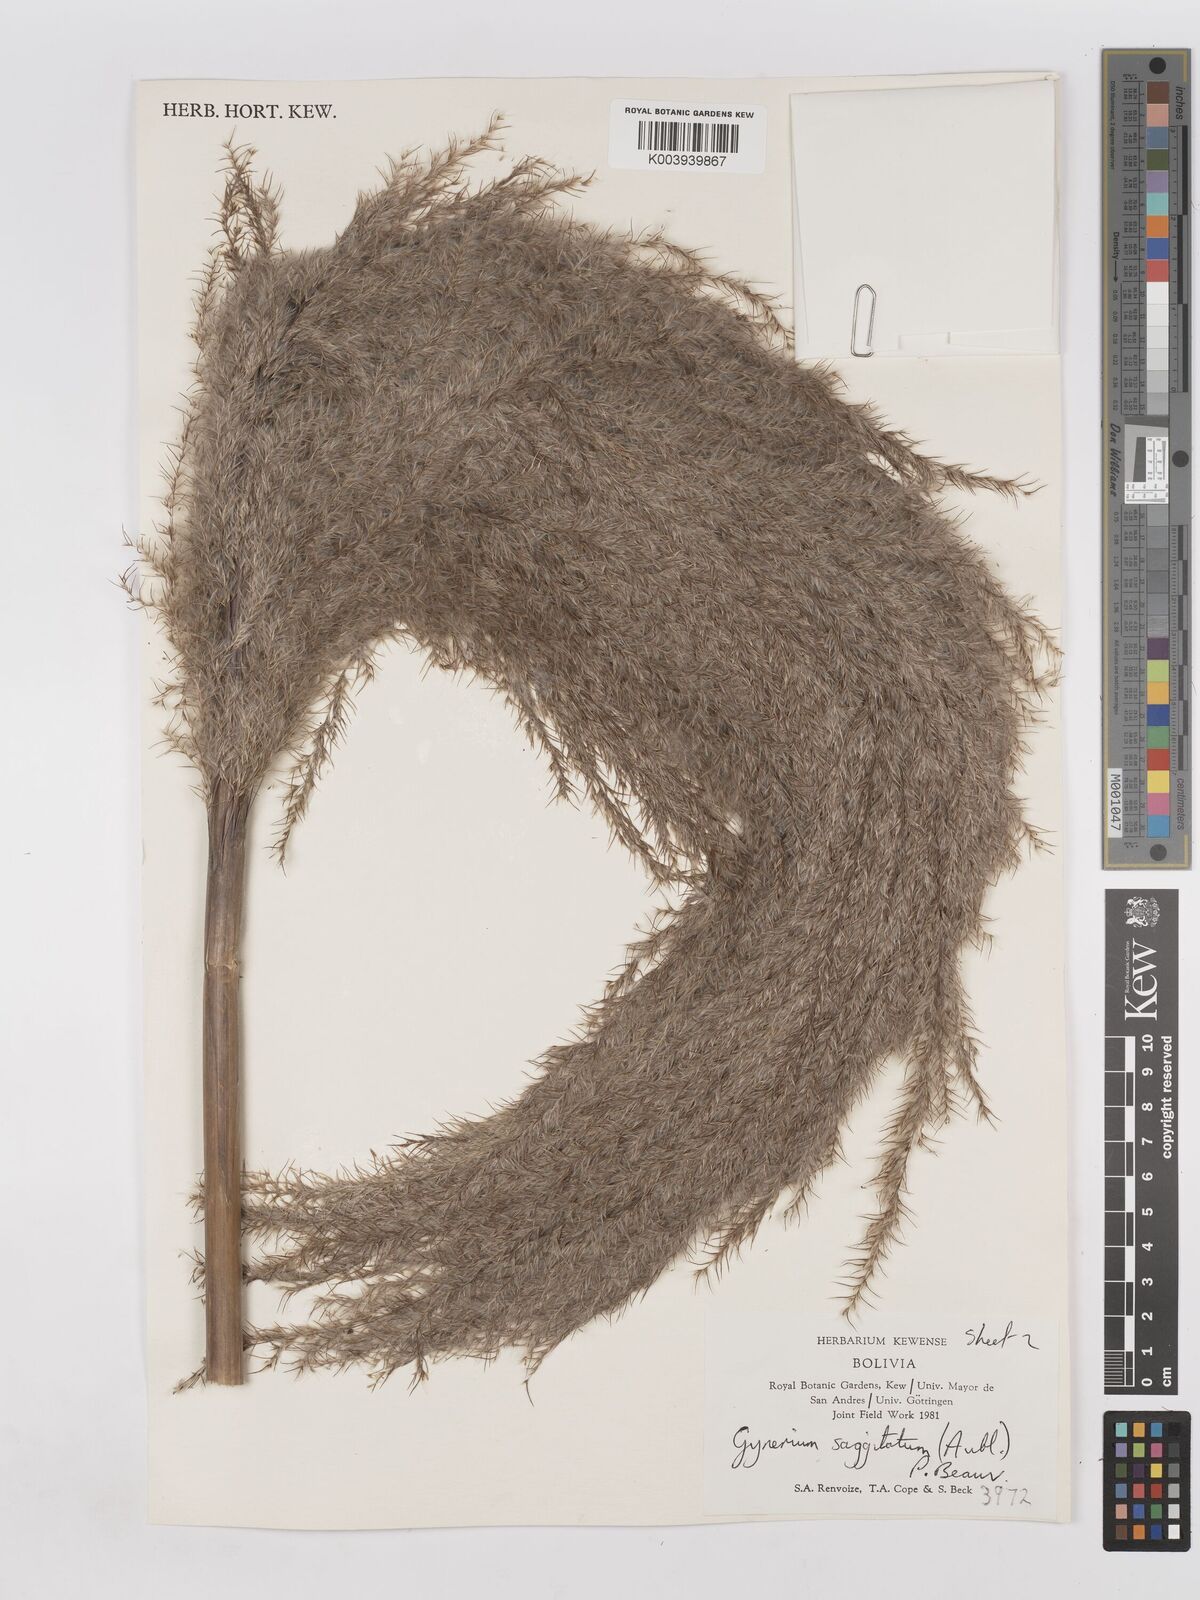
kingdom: Plantae
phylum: Tracheophyta
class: Liliopsida
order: Poales
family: Poaceae
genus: Gynerium
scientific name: Gynerium sagittatum
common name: Wild cane
